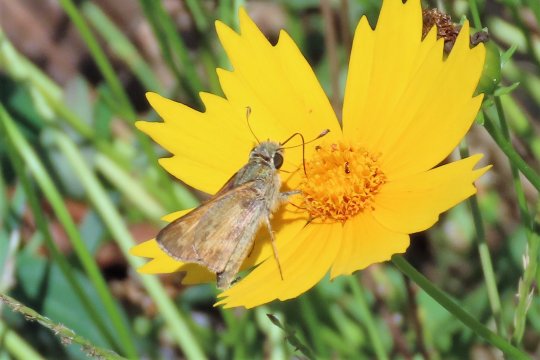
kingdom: Animalia
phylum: Arthropoda
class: Insecta
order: Lepidoptera
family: Hesperiidae
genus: Atalopedes
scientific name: Atalopedes campestris
